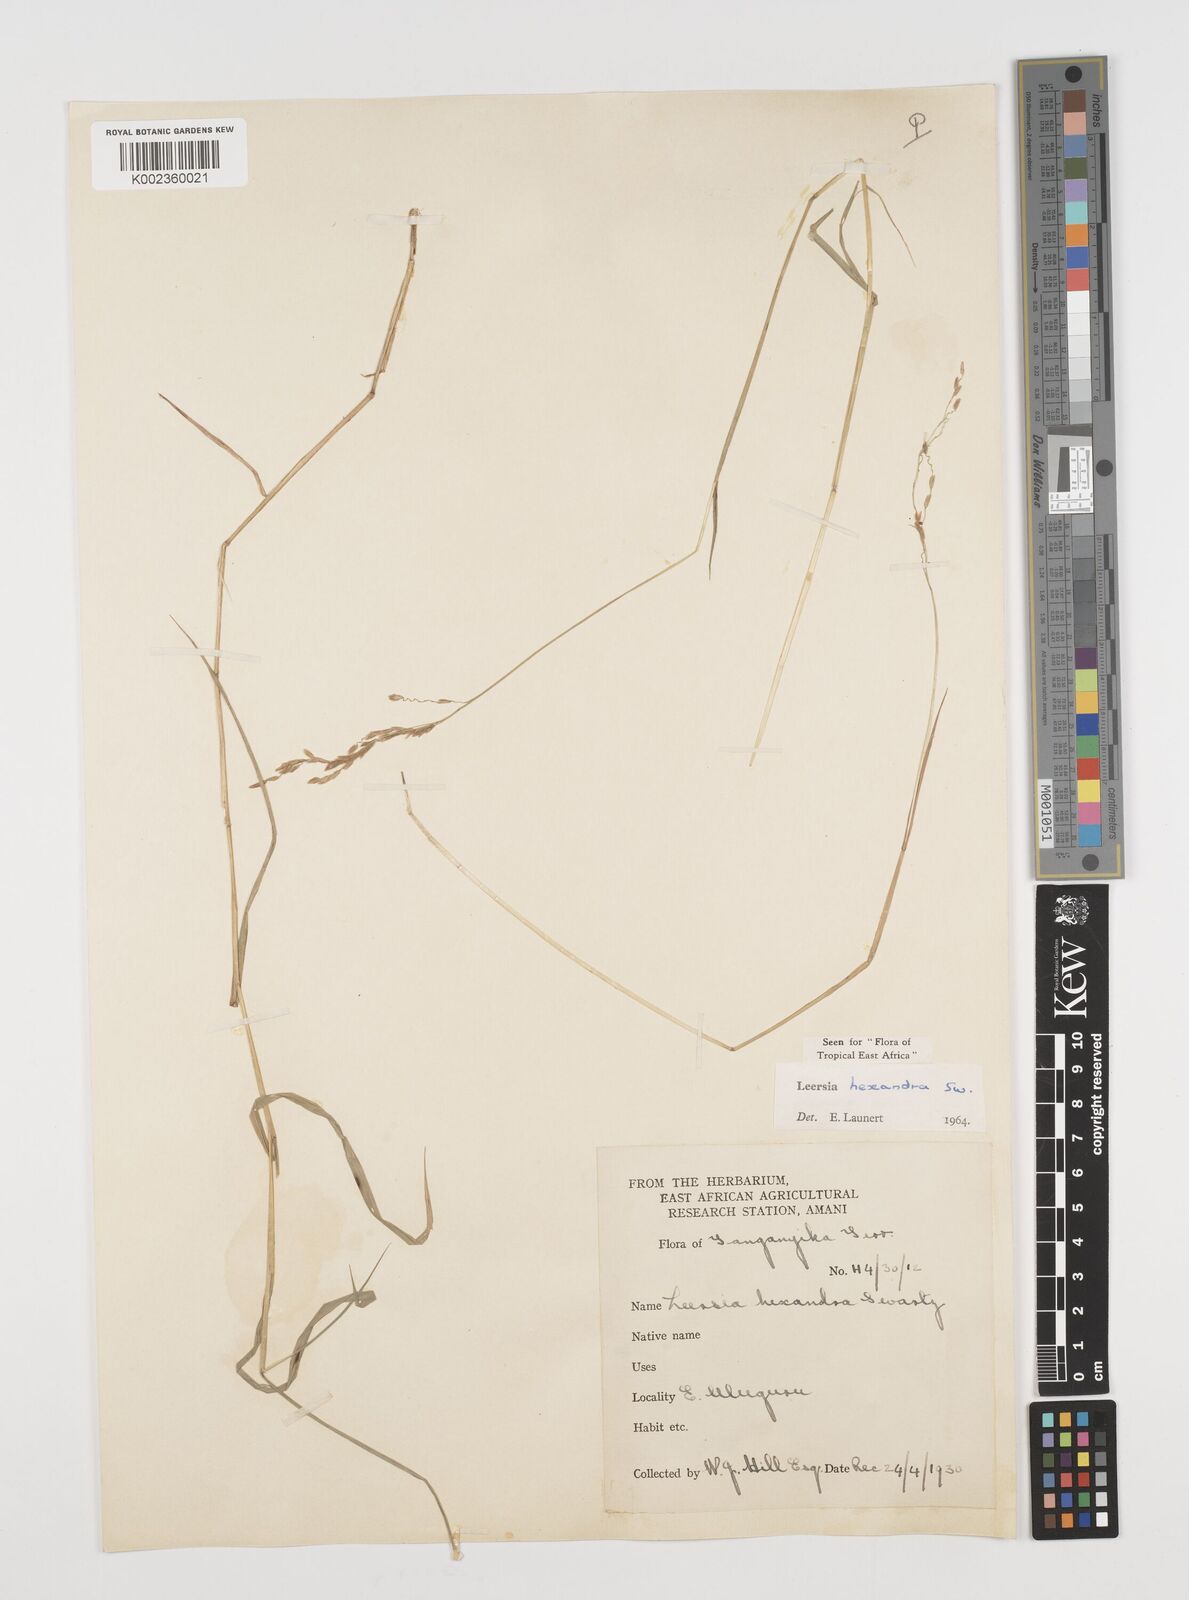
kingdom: Plantae
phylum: Tracheophyta
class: Liliopsida
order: Poales
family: Poaceae
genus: Leersia
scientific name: Leersia hexandra
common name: Southern cut grass
